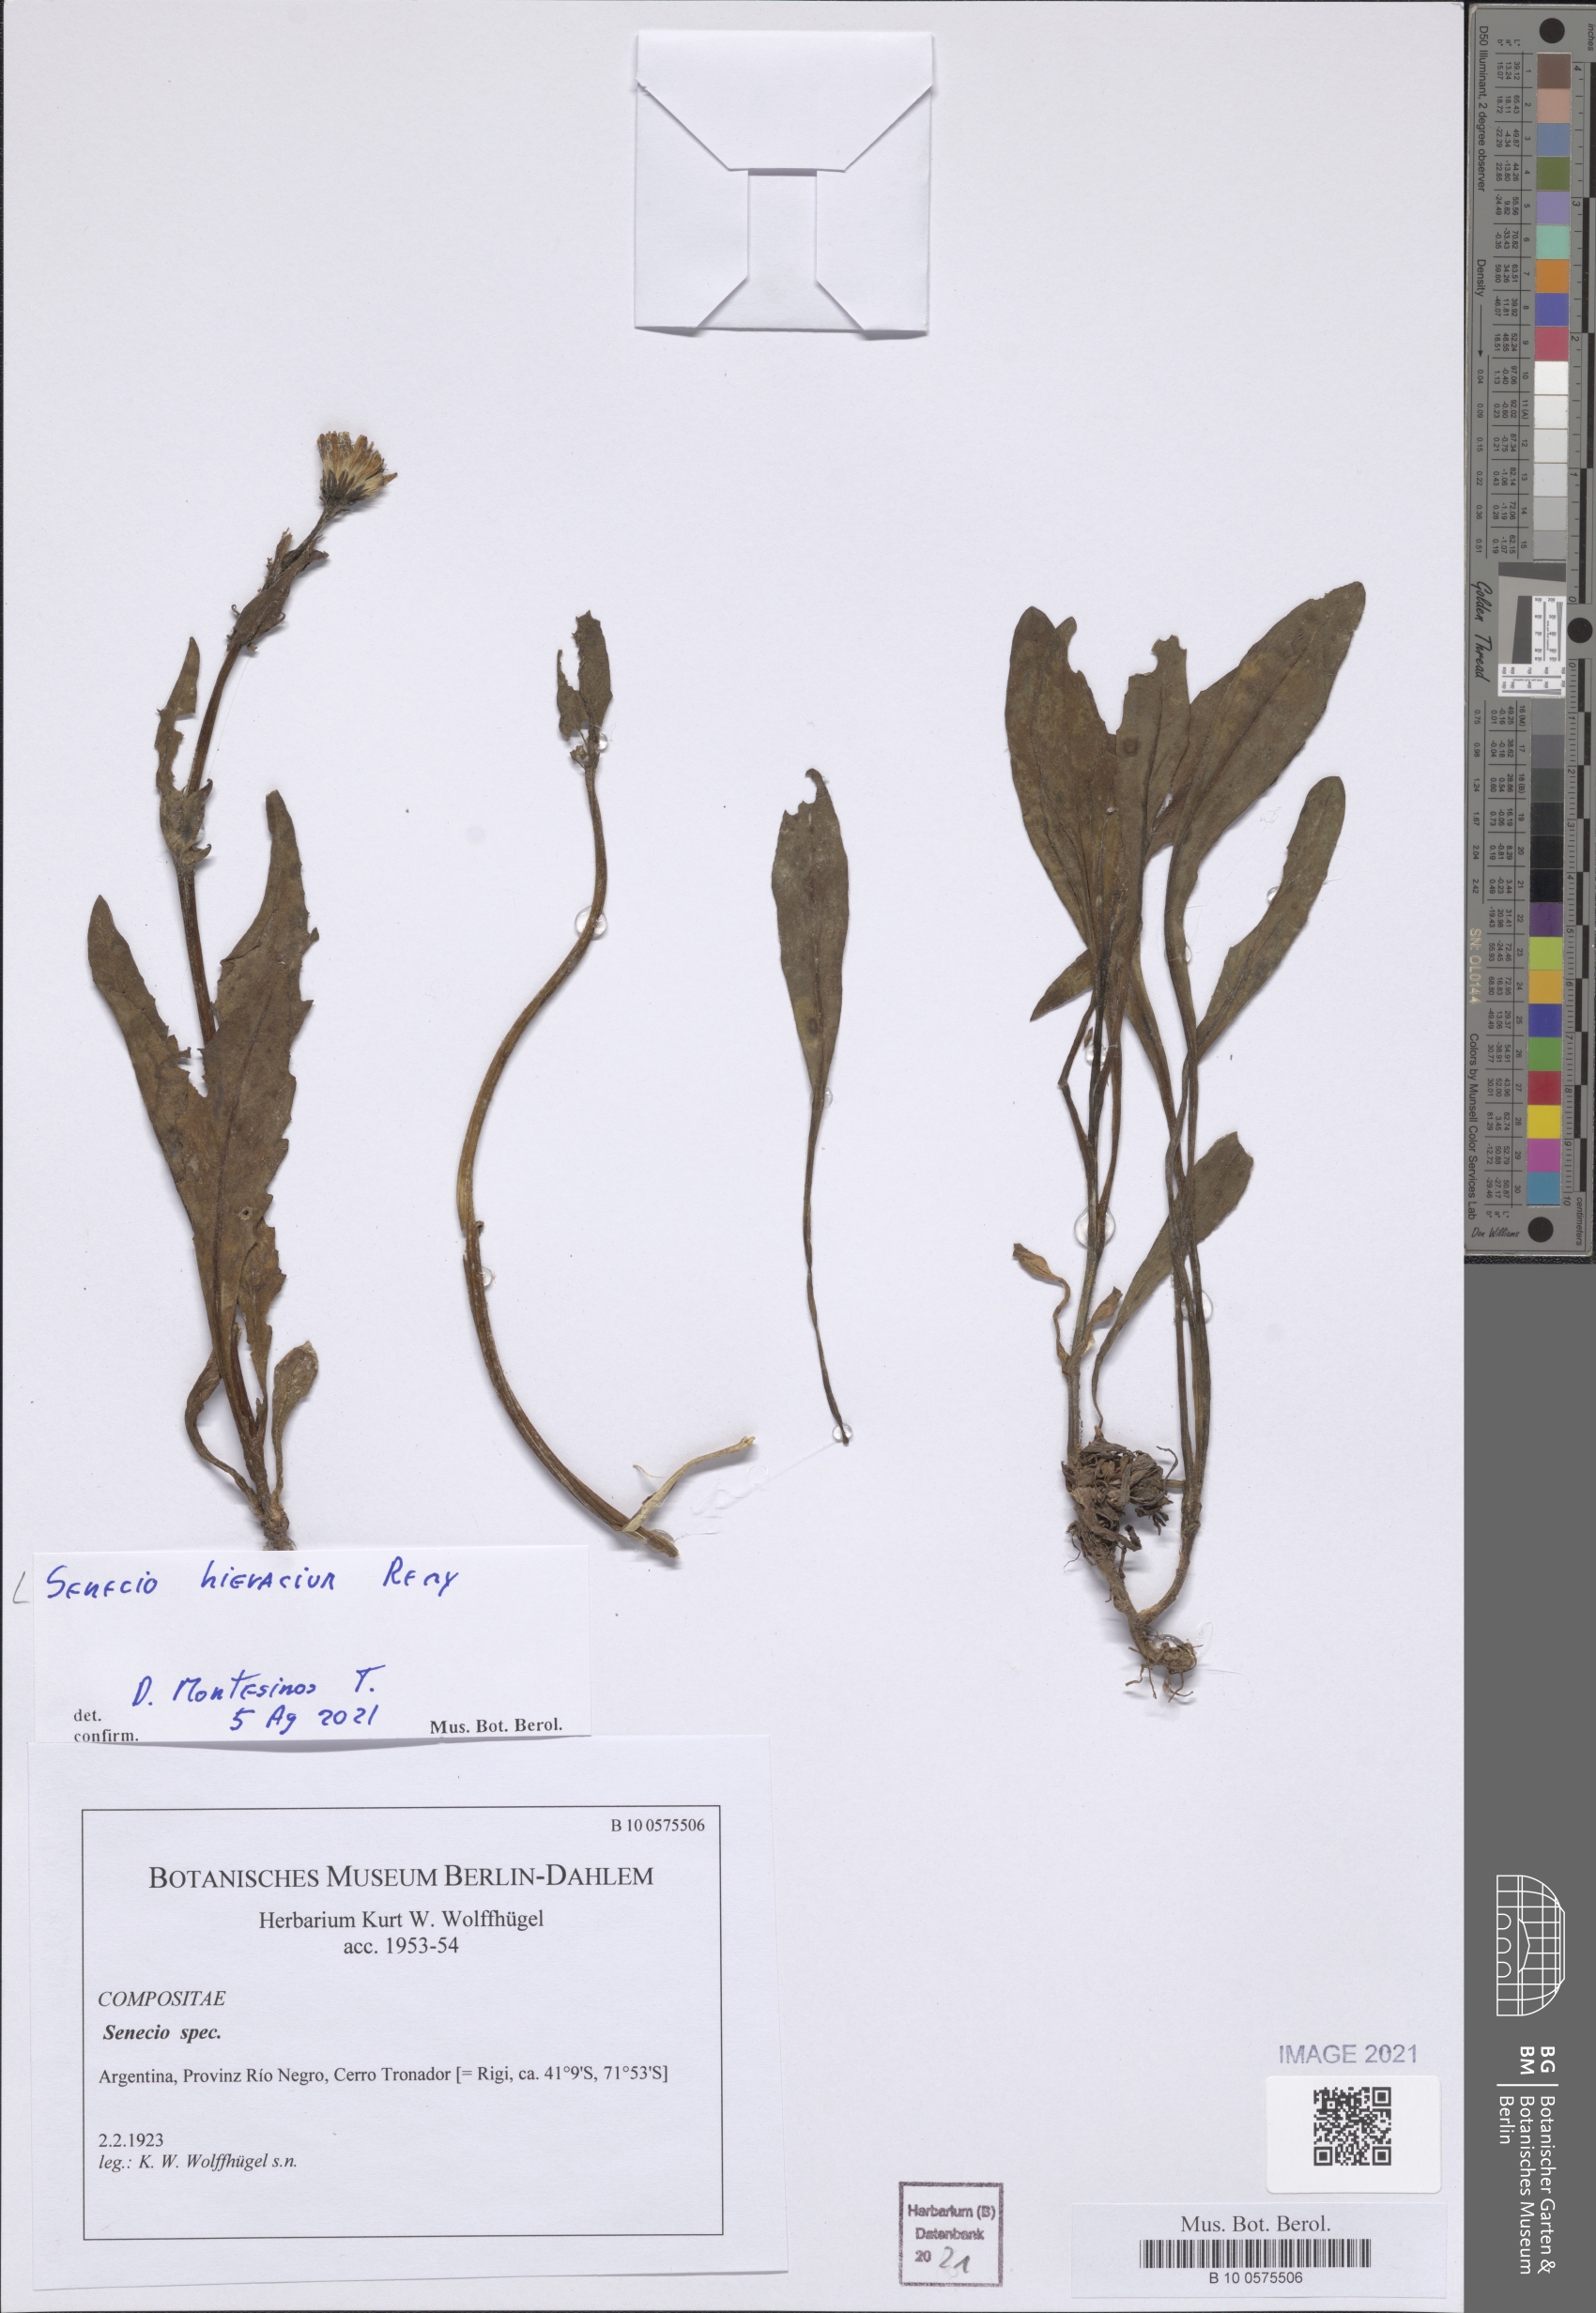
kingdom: Plantae
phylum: Tracheophyta
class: Magnoliopsida
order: Asterales
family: Asteraceae
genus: Senecio
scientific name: Senecio hieracium
